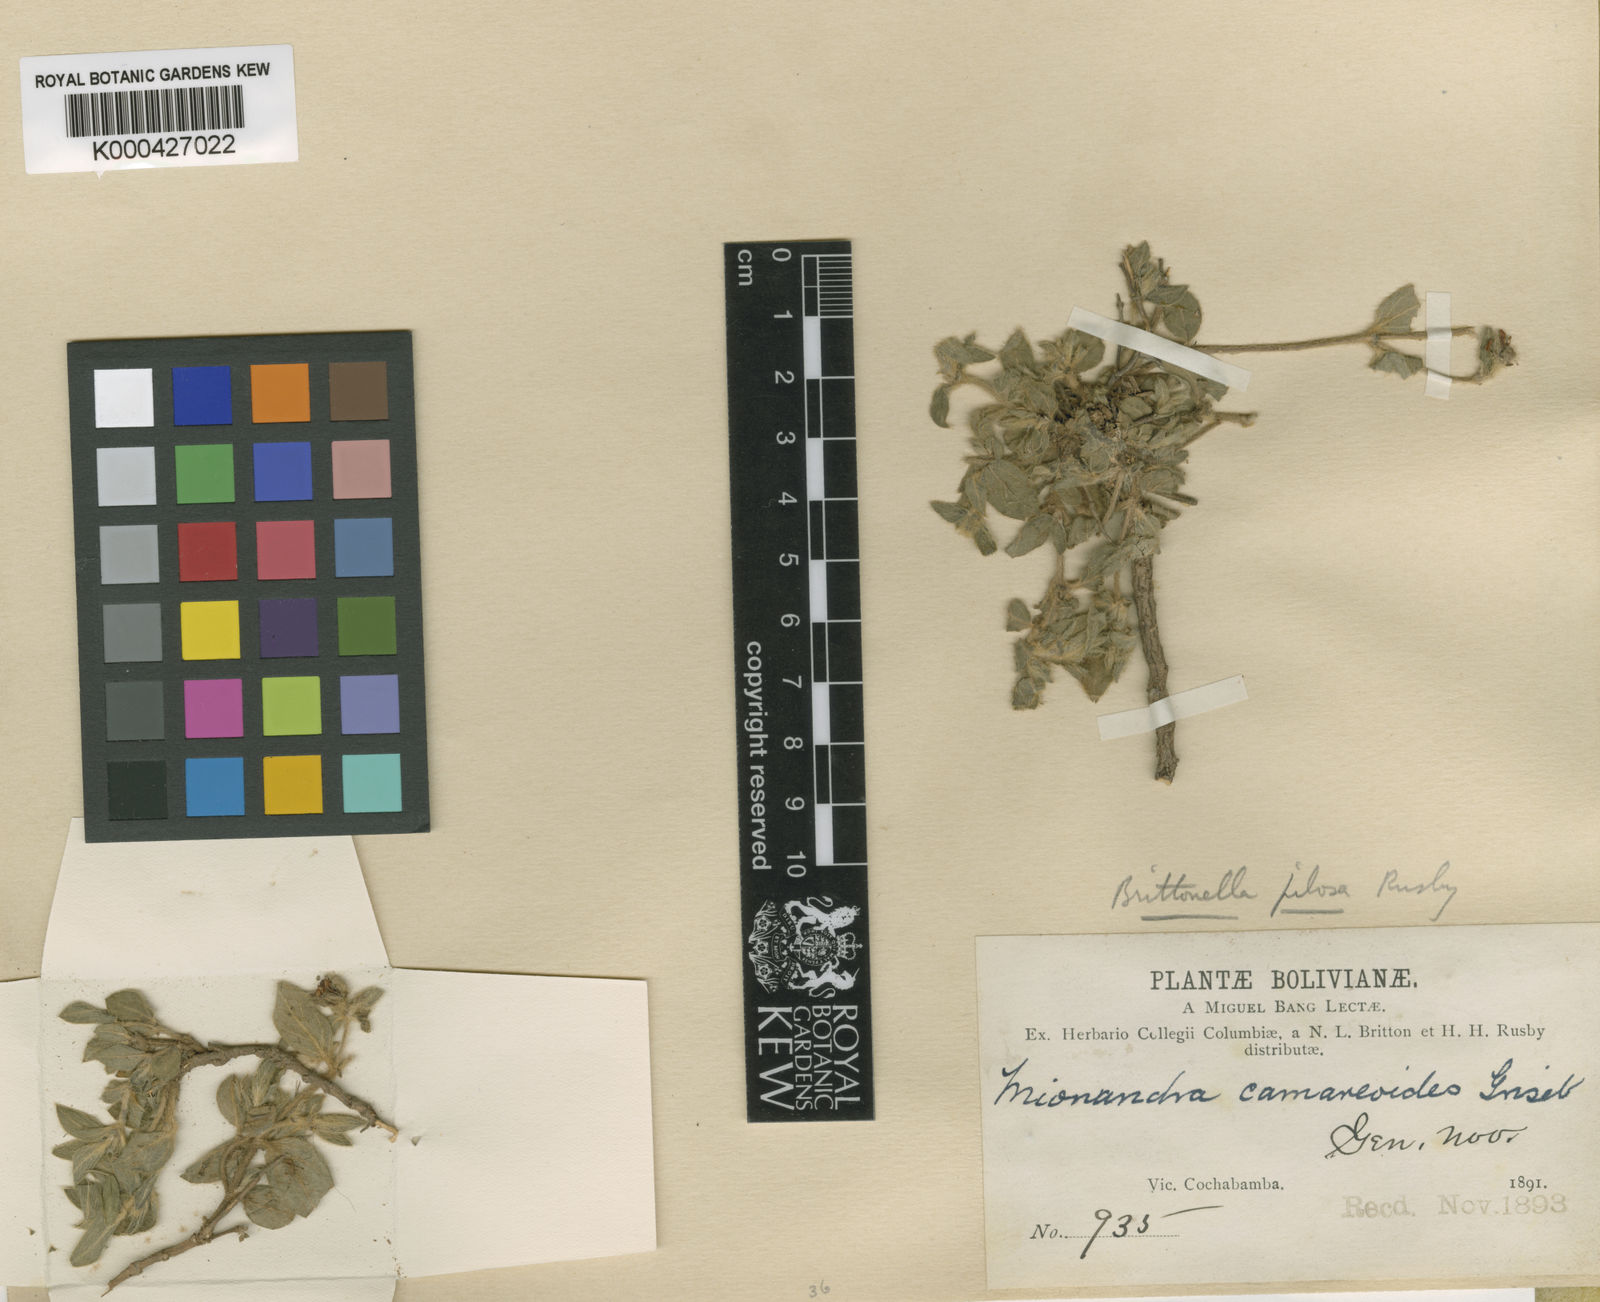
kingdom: Plantae
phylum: Tracheophyta
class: Magnoliopsida
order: Malpighiales
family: Malpighiaceae
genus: Mionandra
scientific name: Mionandra camareoides
